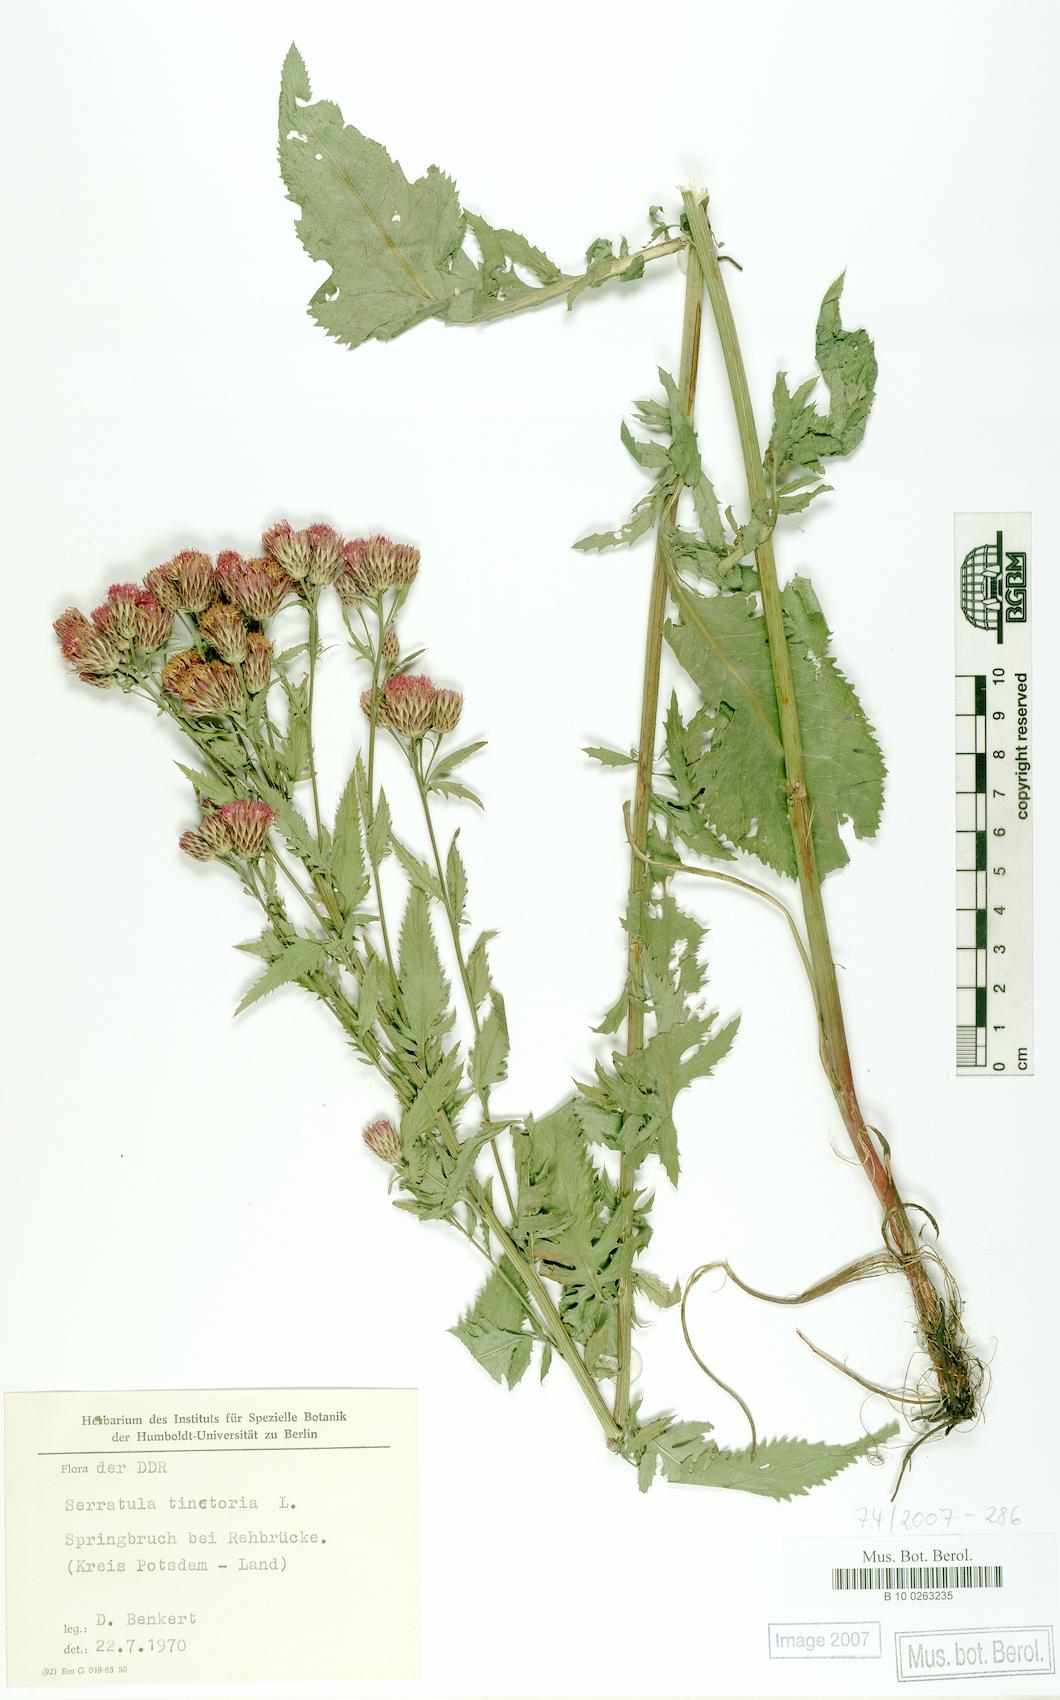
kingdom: Plantae
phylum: Tracheophyta
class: Magnoliopsida
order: Asterales
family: Asteraceae
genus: Serratula
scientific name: Serratula tinctoria
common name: Saw-wort
